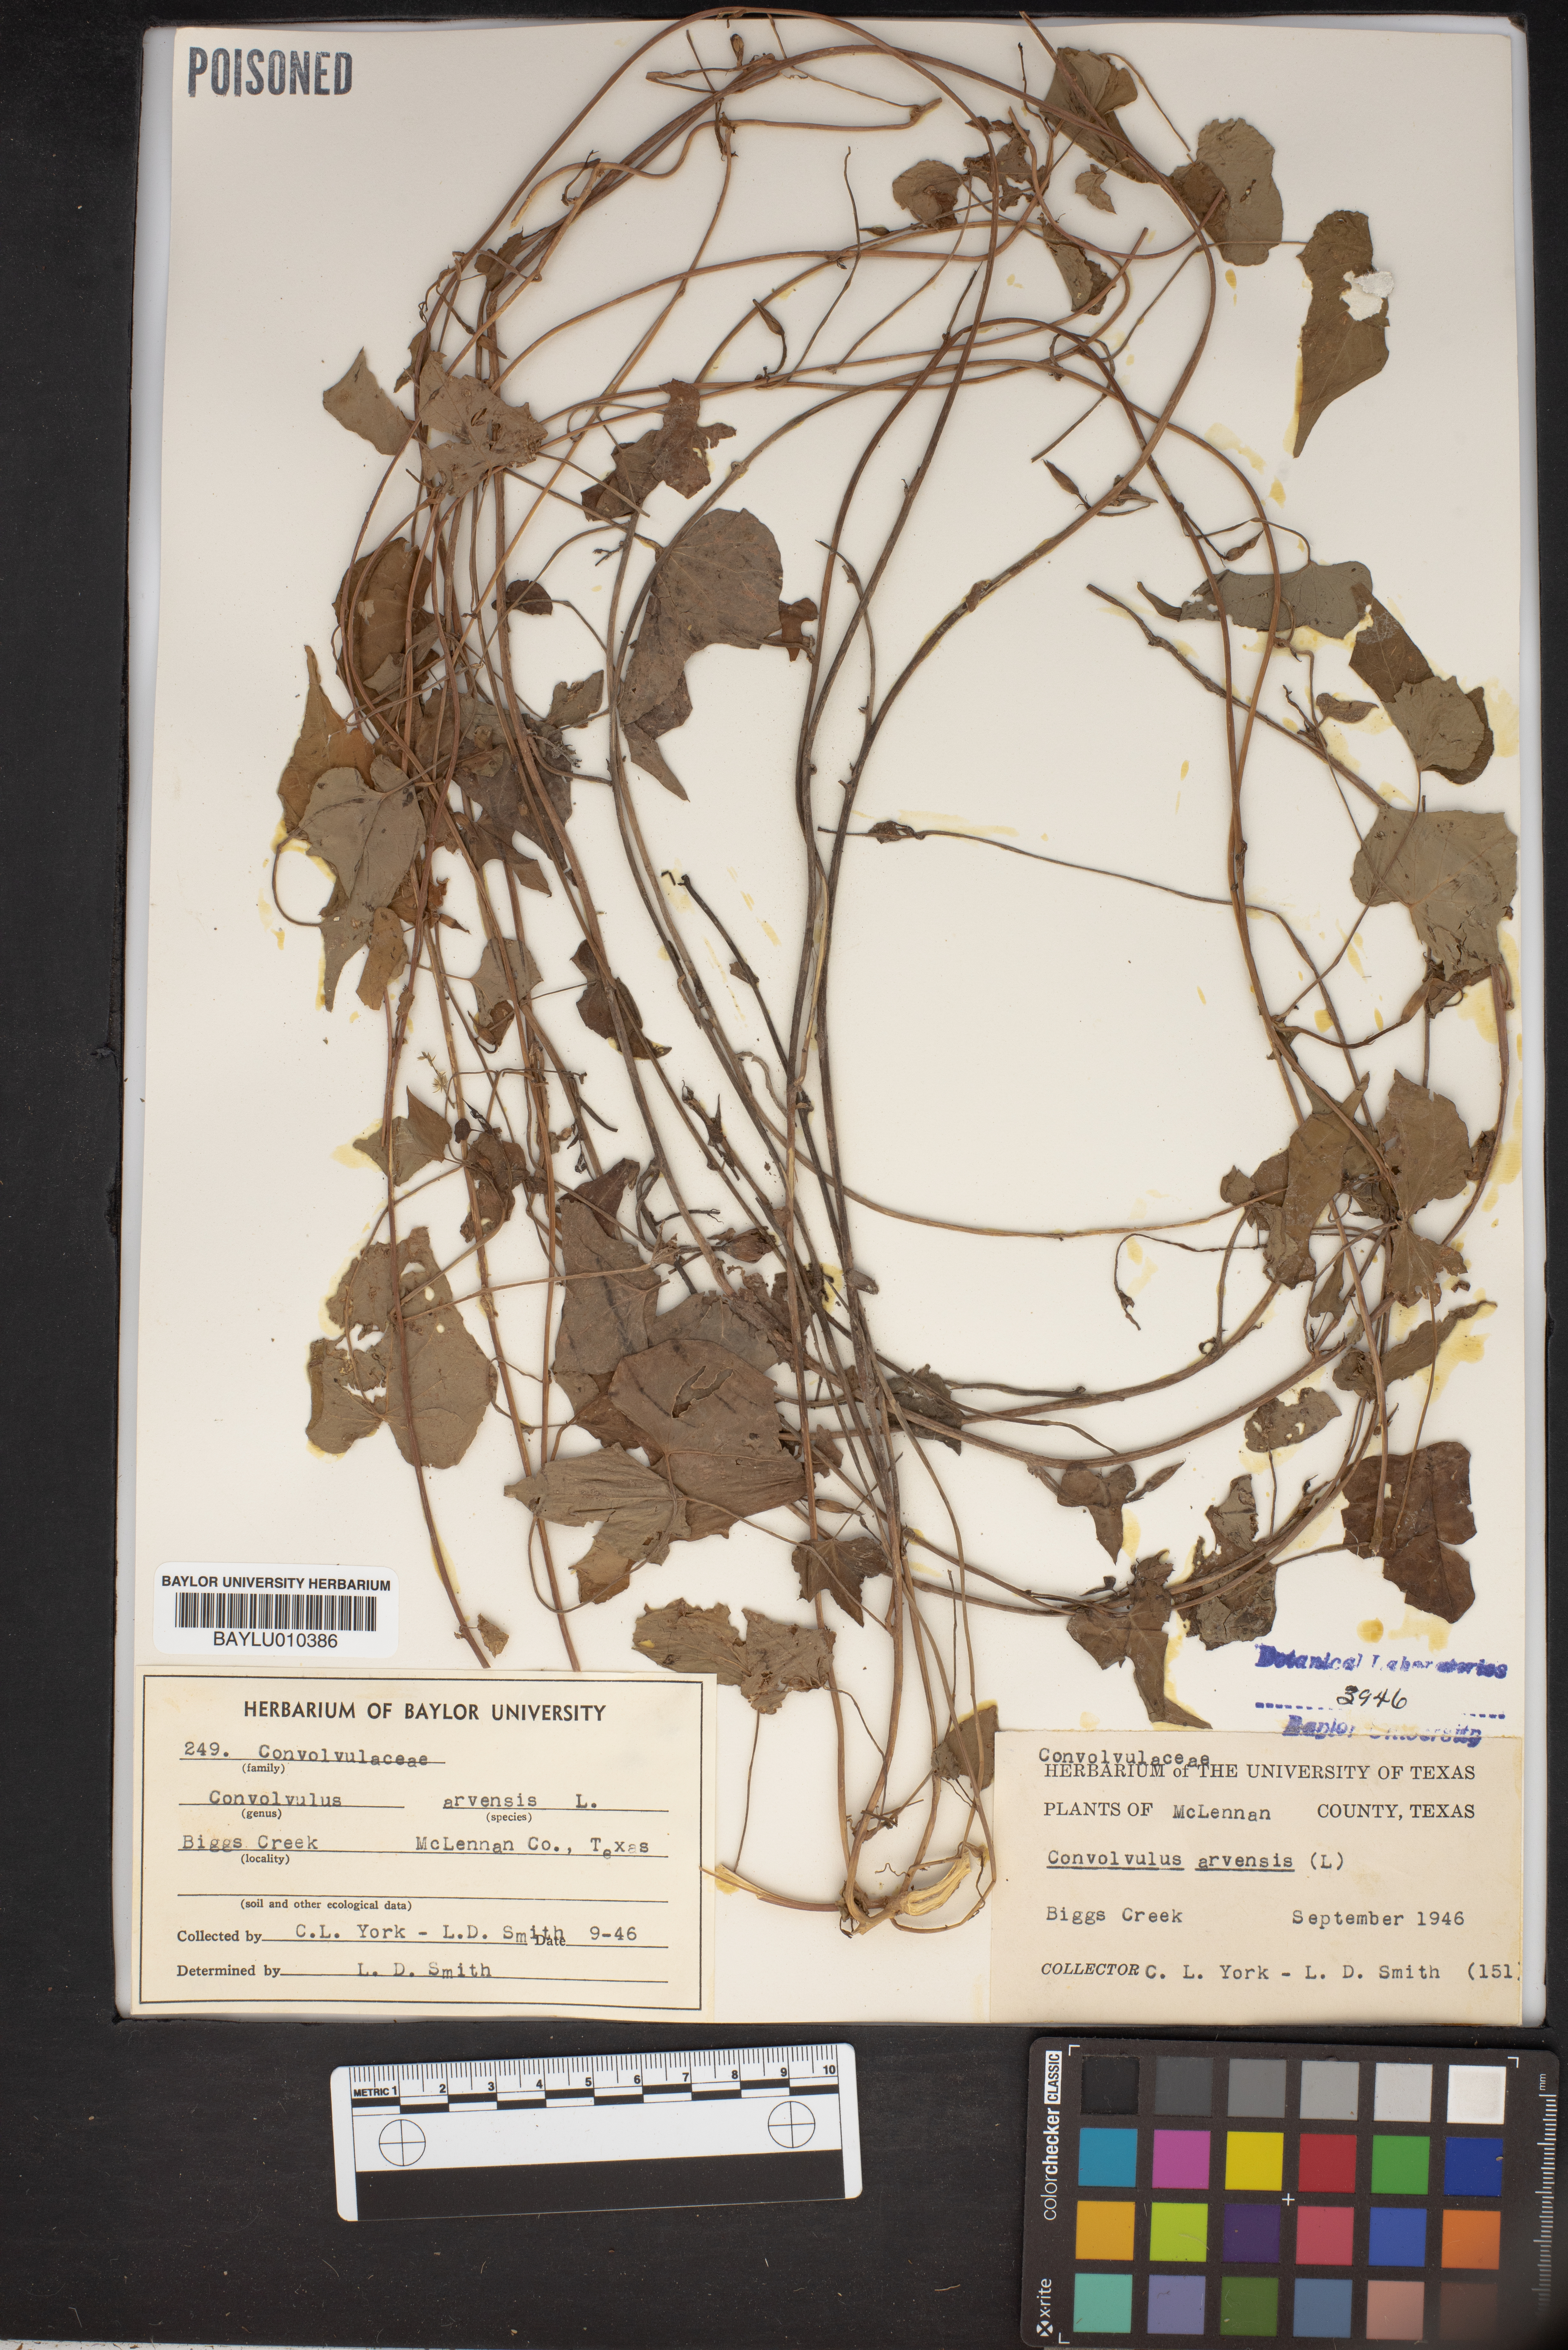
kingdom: Plantae
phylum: Tracheophyta
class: Magnoliopsida
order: Solanales
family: Convolvulaceae
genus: Convolvulus
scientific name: Convolvulus arvensis
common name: Field bindweed
